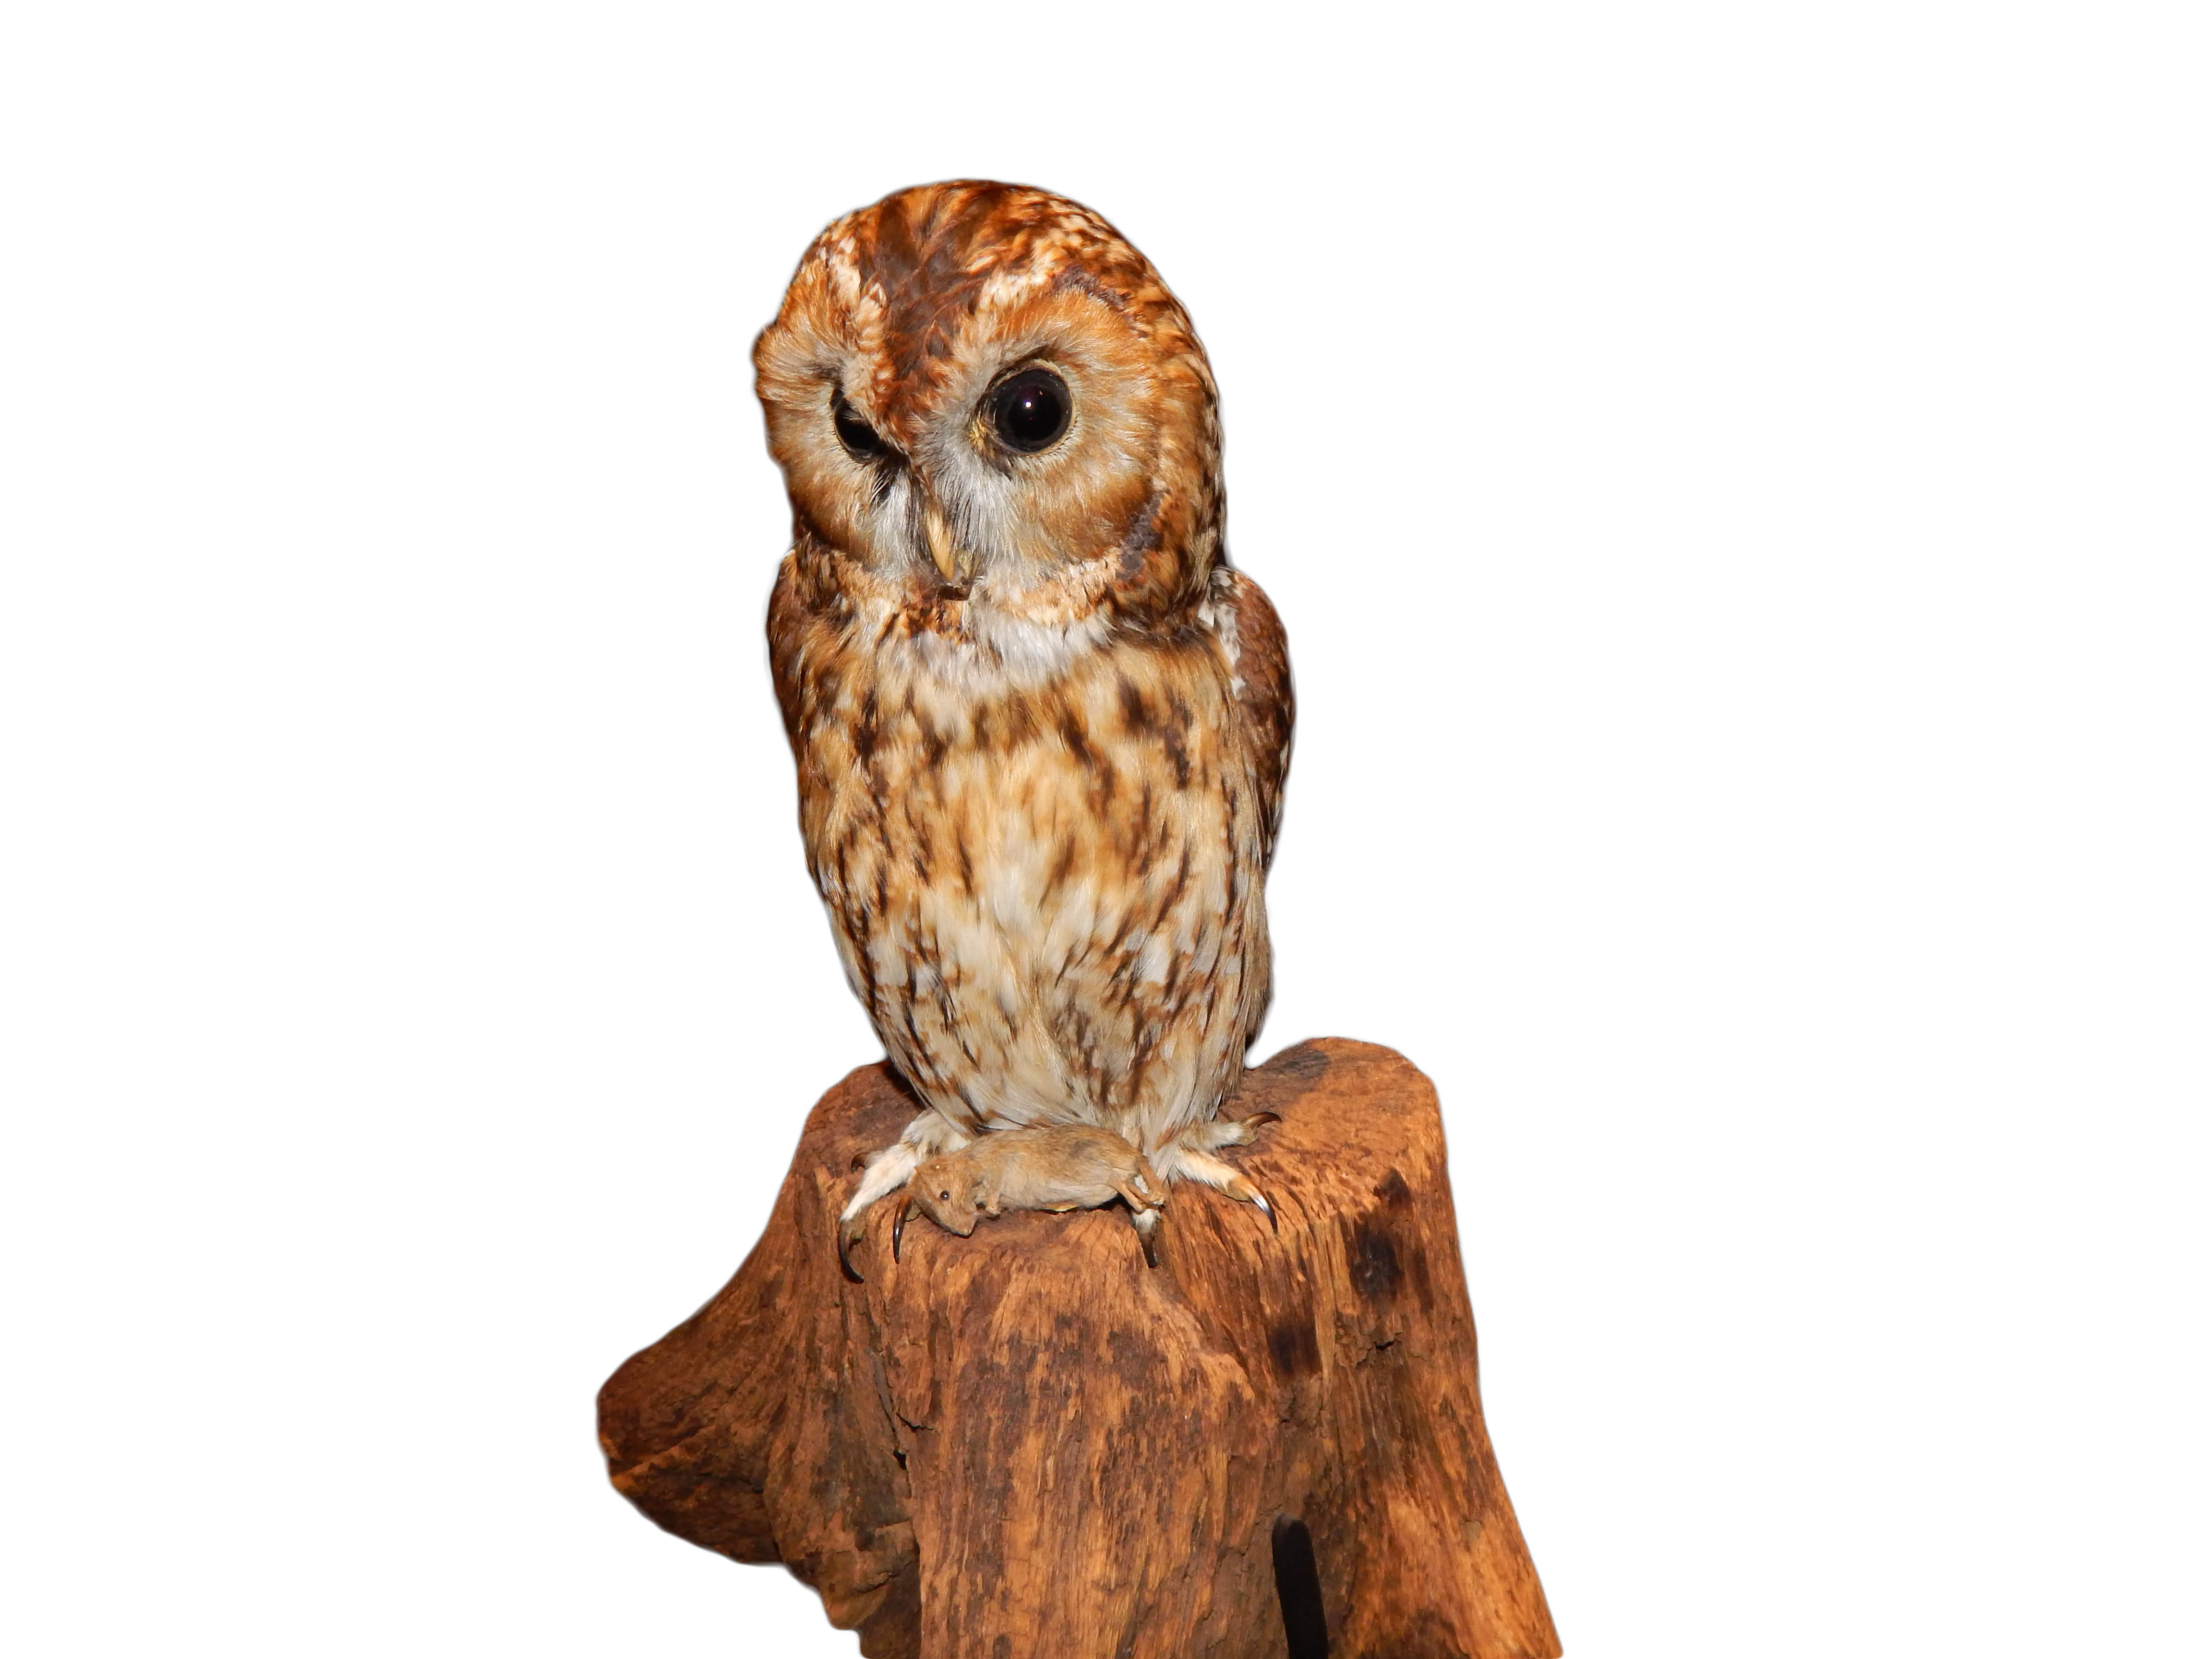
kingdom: Animalia
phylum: Chordata
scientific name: Chordata
